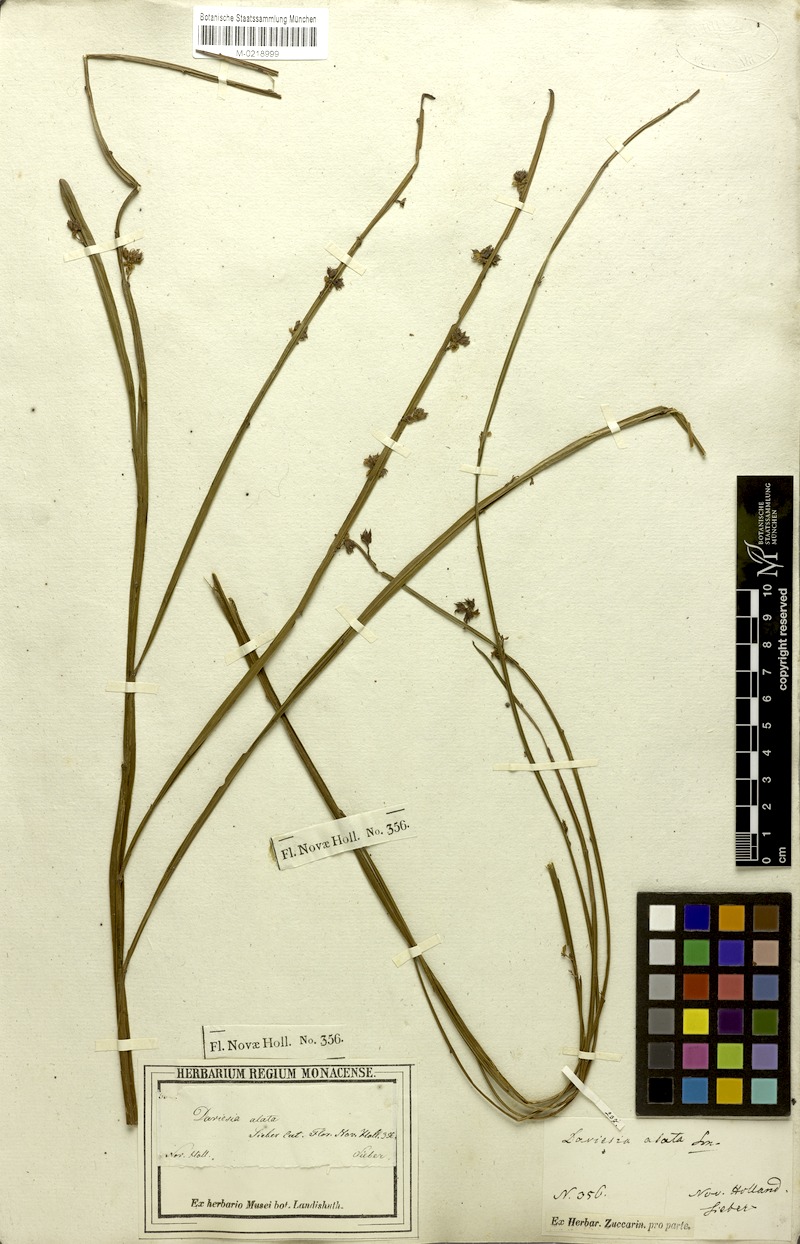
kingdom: Plantae
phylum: Tracheophyta
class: Magnoliopsida
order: Fabales
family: Fabaceae
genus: Daviesia
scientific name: Daviesia alata
